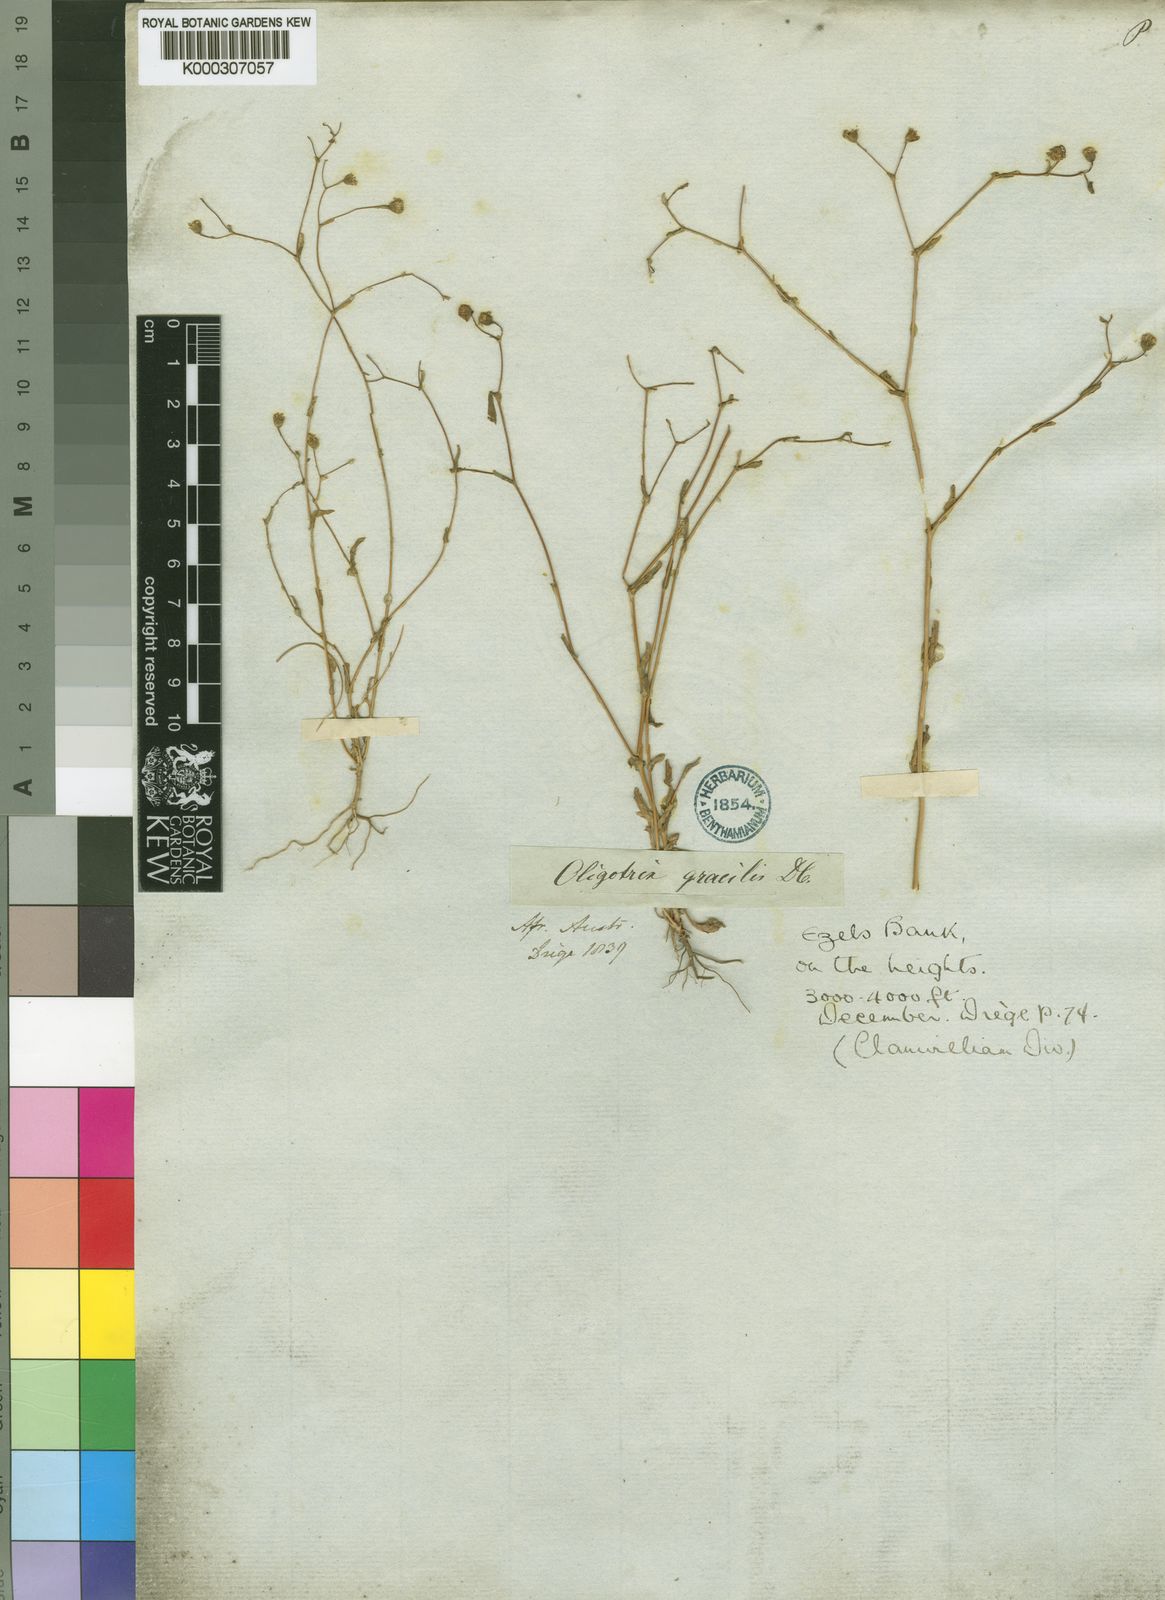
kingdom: Plantae
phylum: Tracheophyta
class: Magnoliopsida
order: Asterales
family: Asteraceae
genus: Oligothrix
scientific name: Oligothrix gracilis
